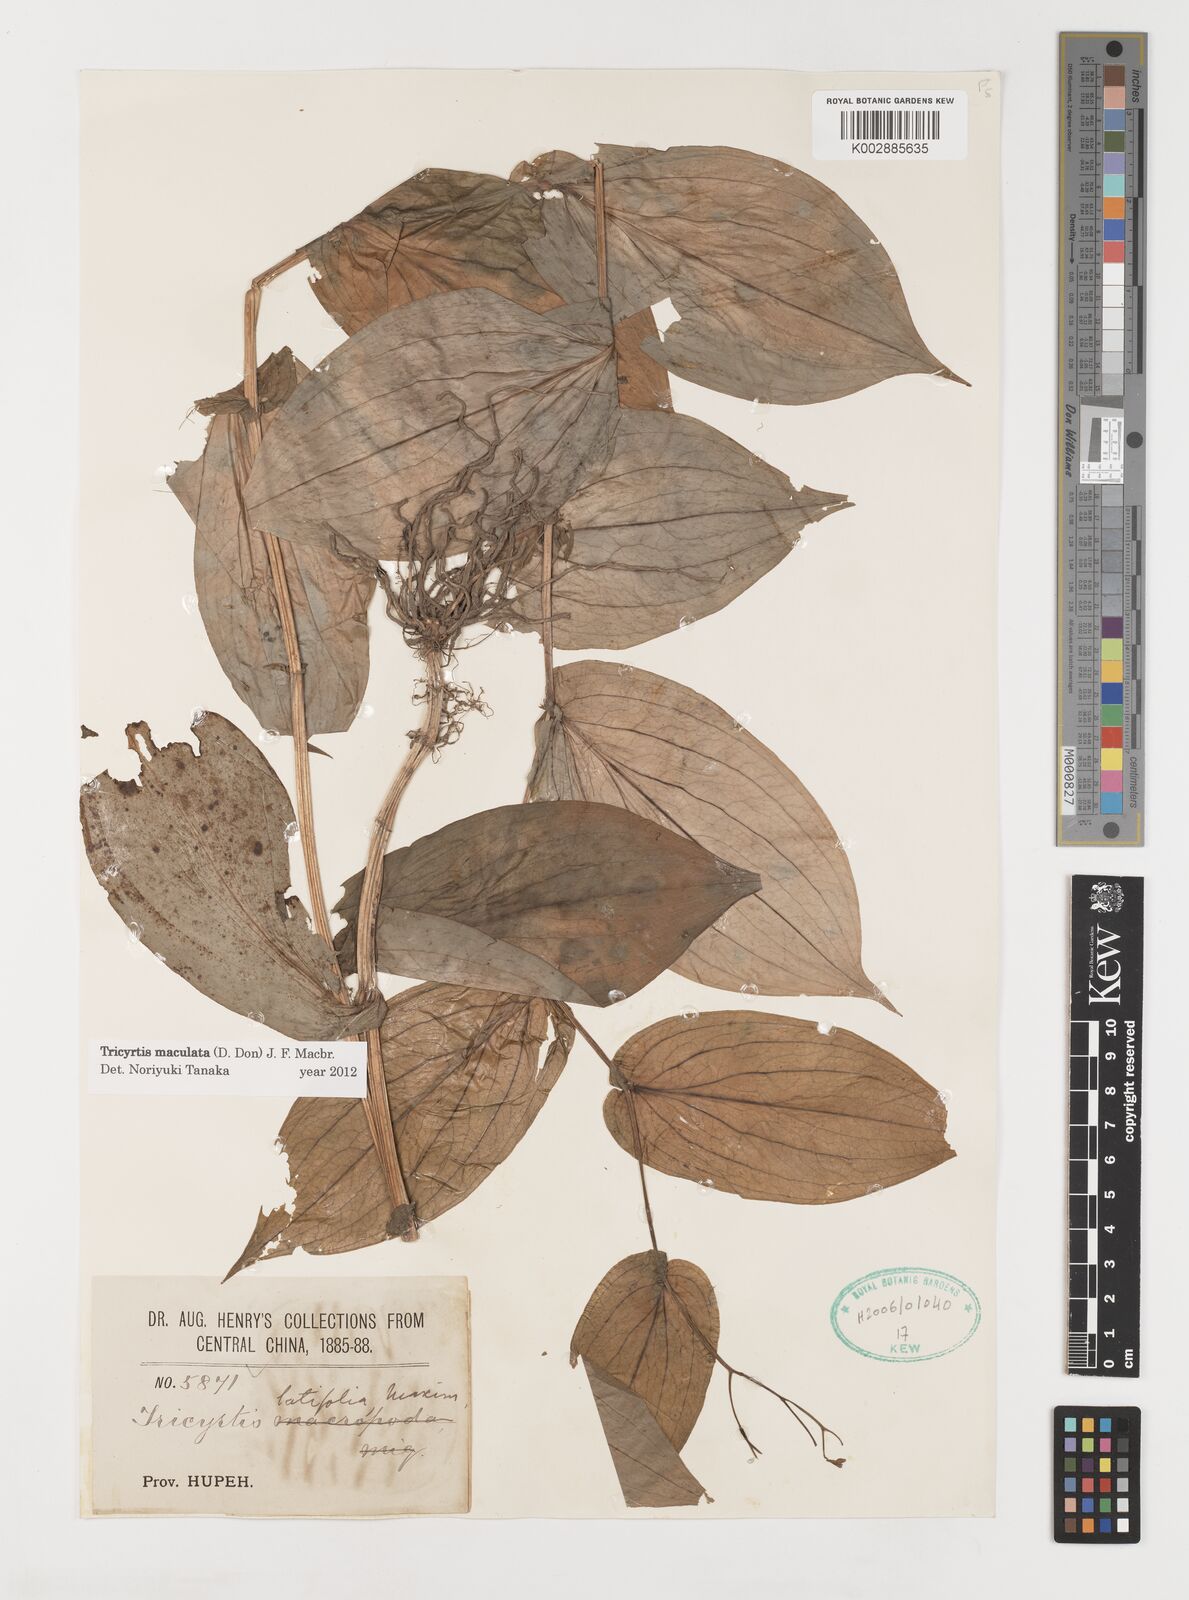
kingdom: Plantae
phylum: Tracheophyta
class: Liliopsida
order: Liliales
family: Liliaceae
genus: Tricyrtis
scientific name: Tricyrtis maculata
